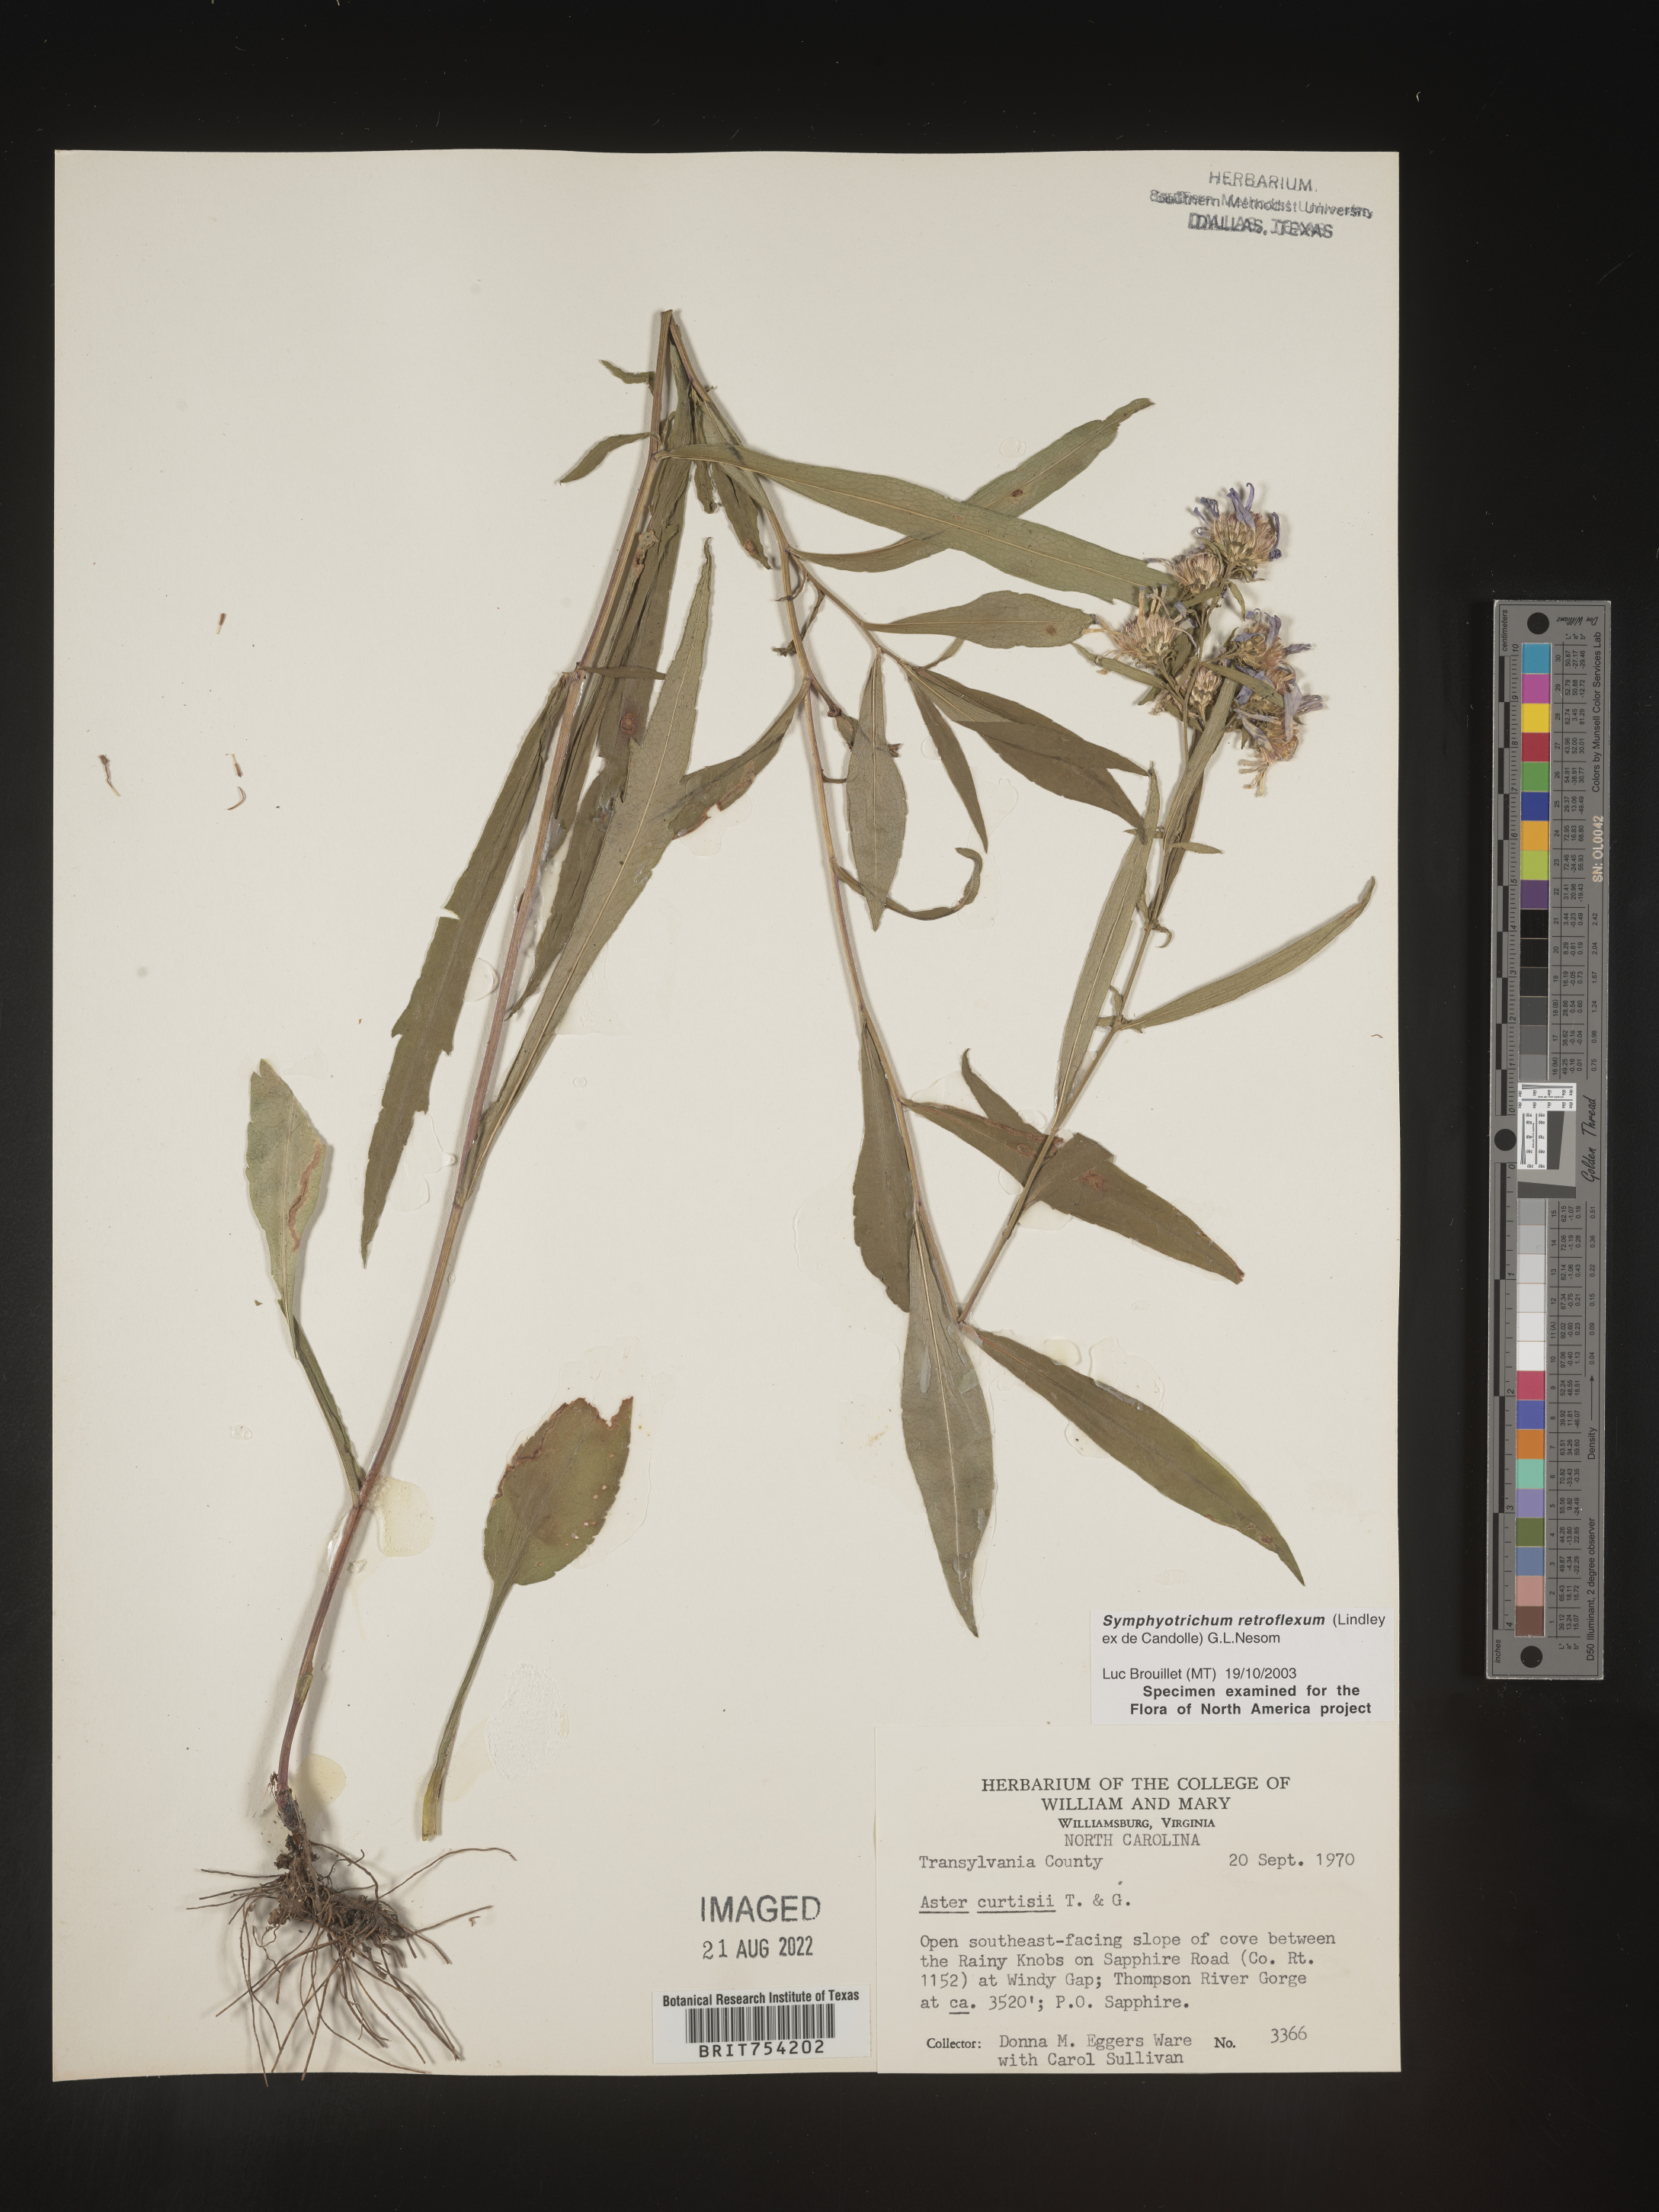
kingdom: Plantae
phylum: Tracheophyta
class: Magnoliopsida
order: Asterales
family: Asteraceae
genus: Symphyotrichum
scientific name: Symphyotrichum retroflexum
